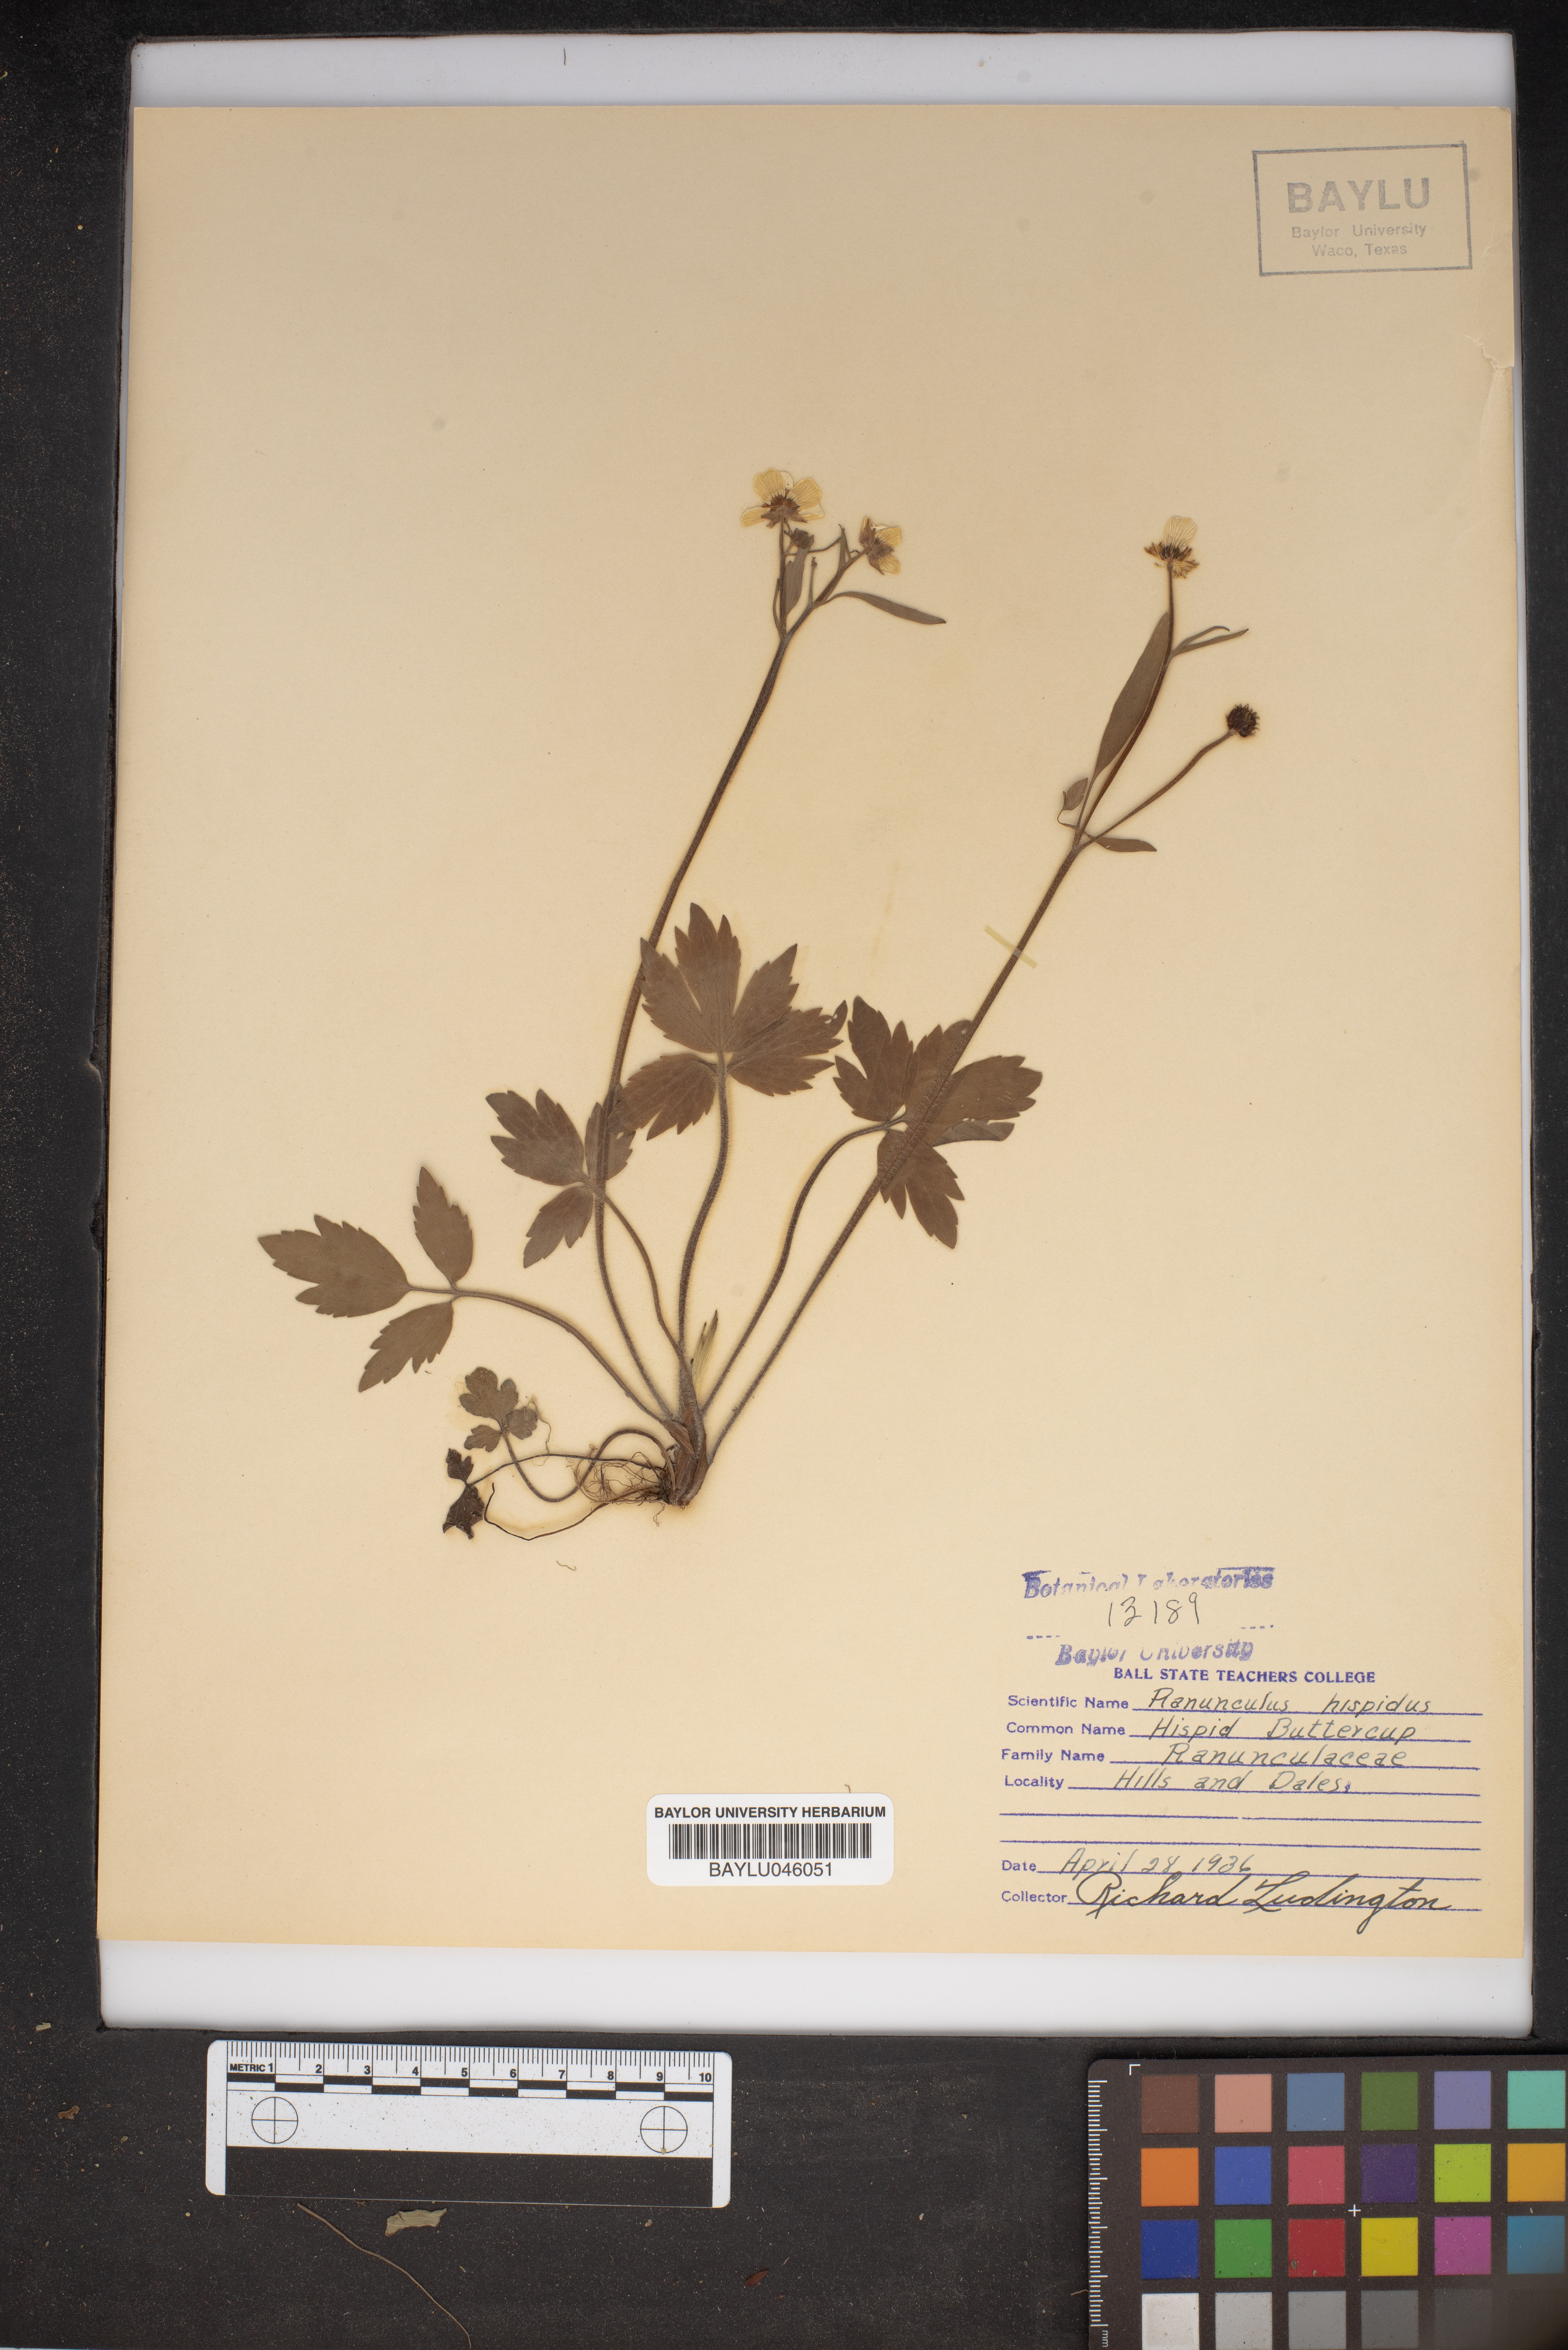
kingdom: Plantae
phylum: Tracheophyta
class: Magnoliopsida
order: Ranunculales
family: Ranunculaceae
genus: Ranunculus
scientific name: Ranunculus hispidus
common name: Bristly buttercup
